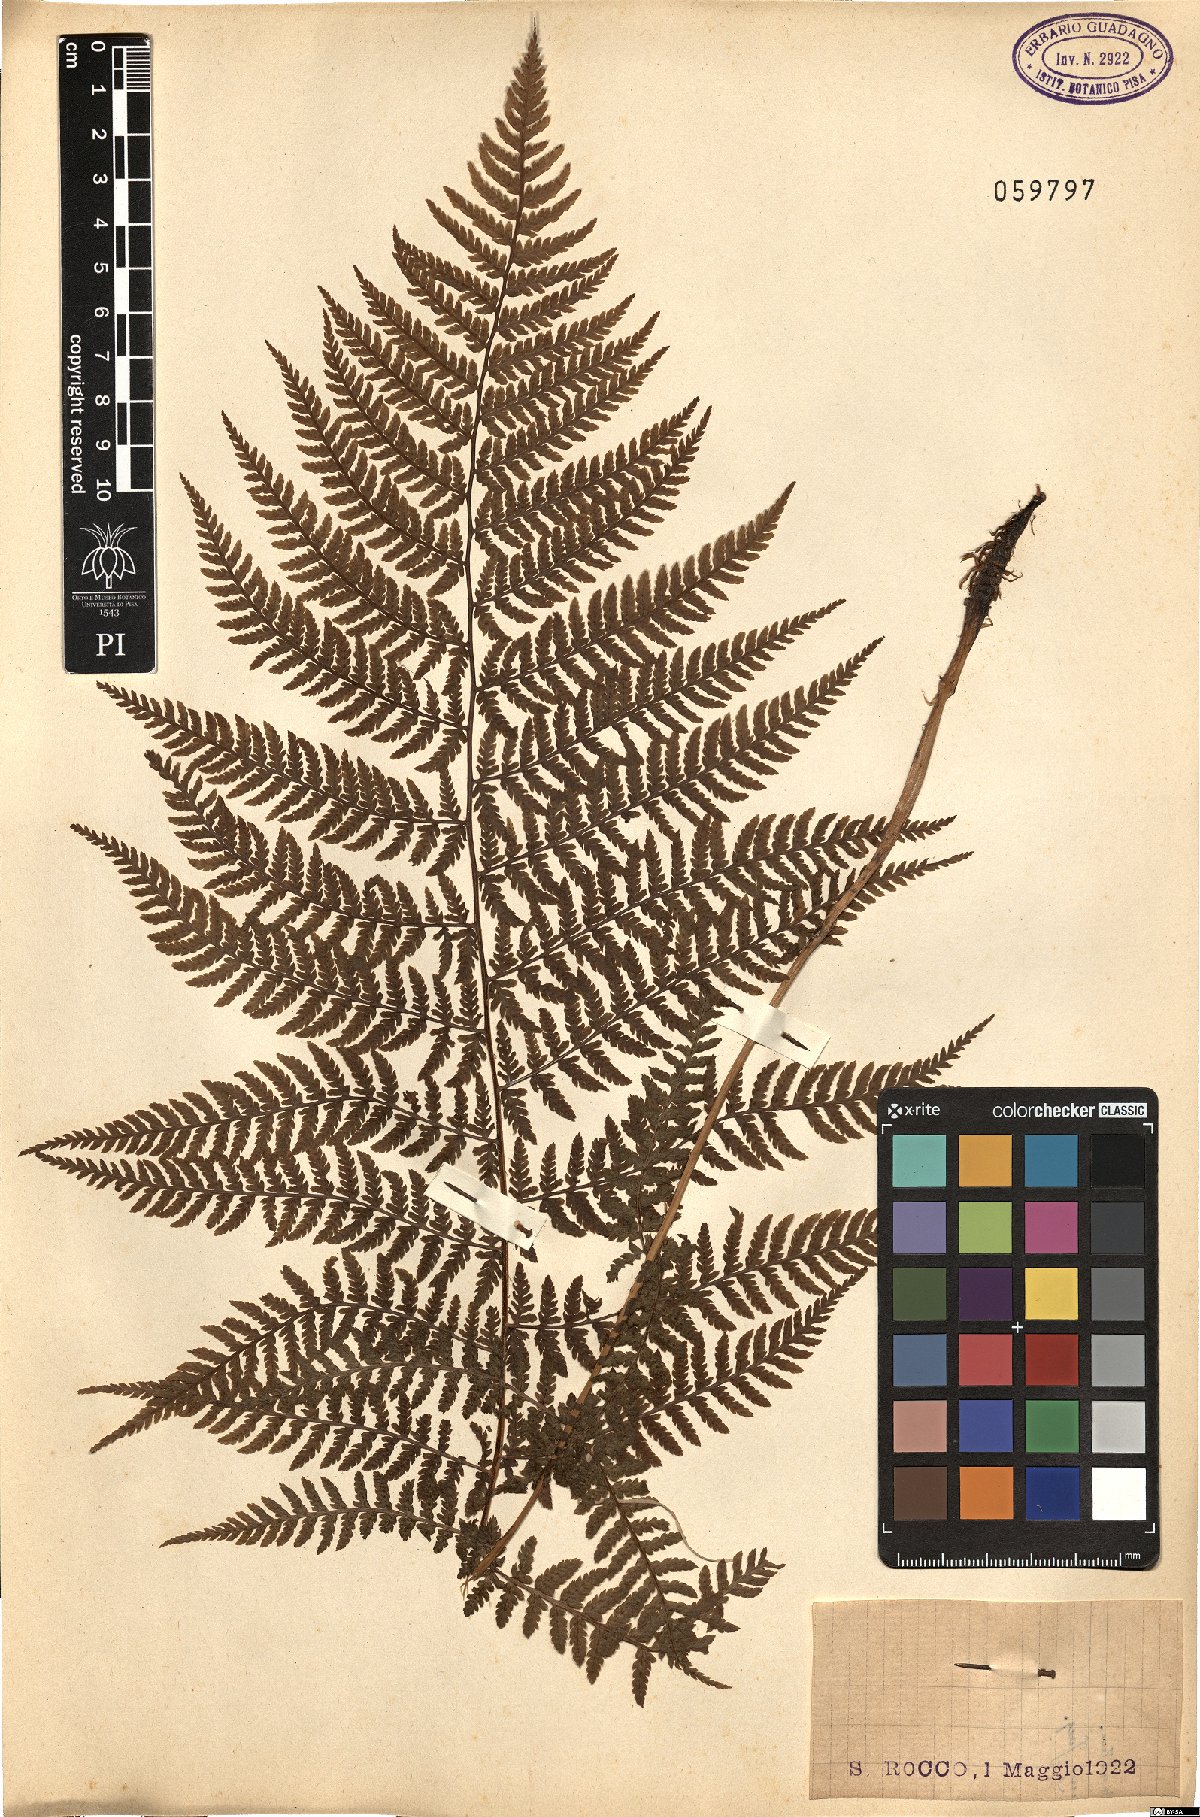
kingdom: Plantae
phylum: Tracheophyta
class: Polypodiopsida
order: Polypodiales
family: Dryopteridaceae
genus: Dryopteris
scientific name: Dryopteris
